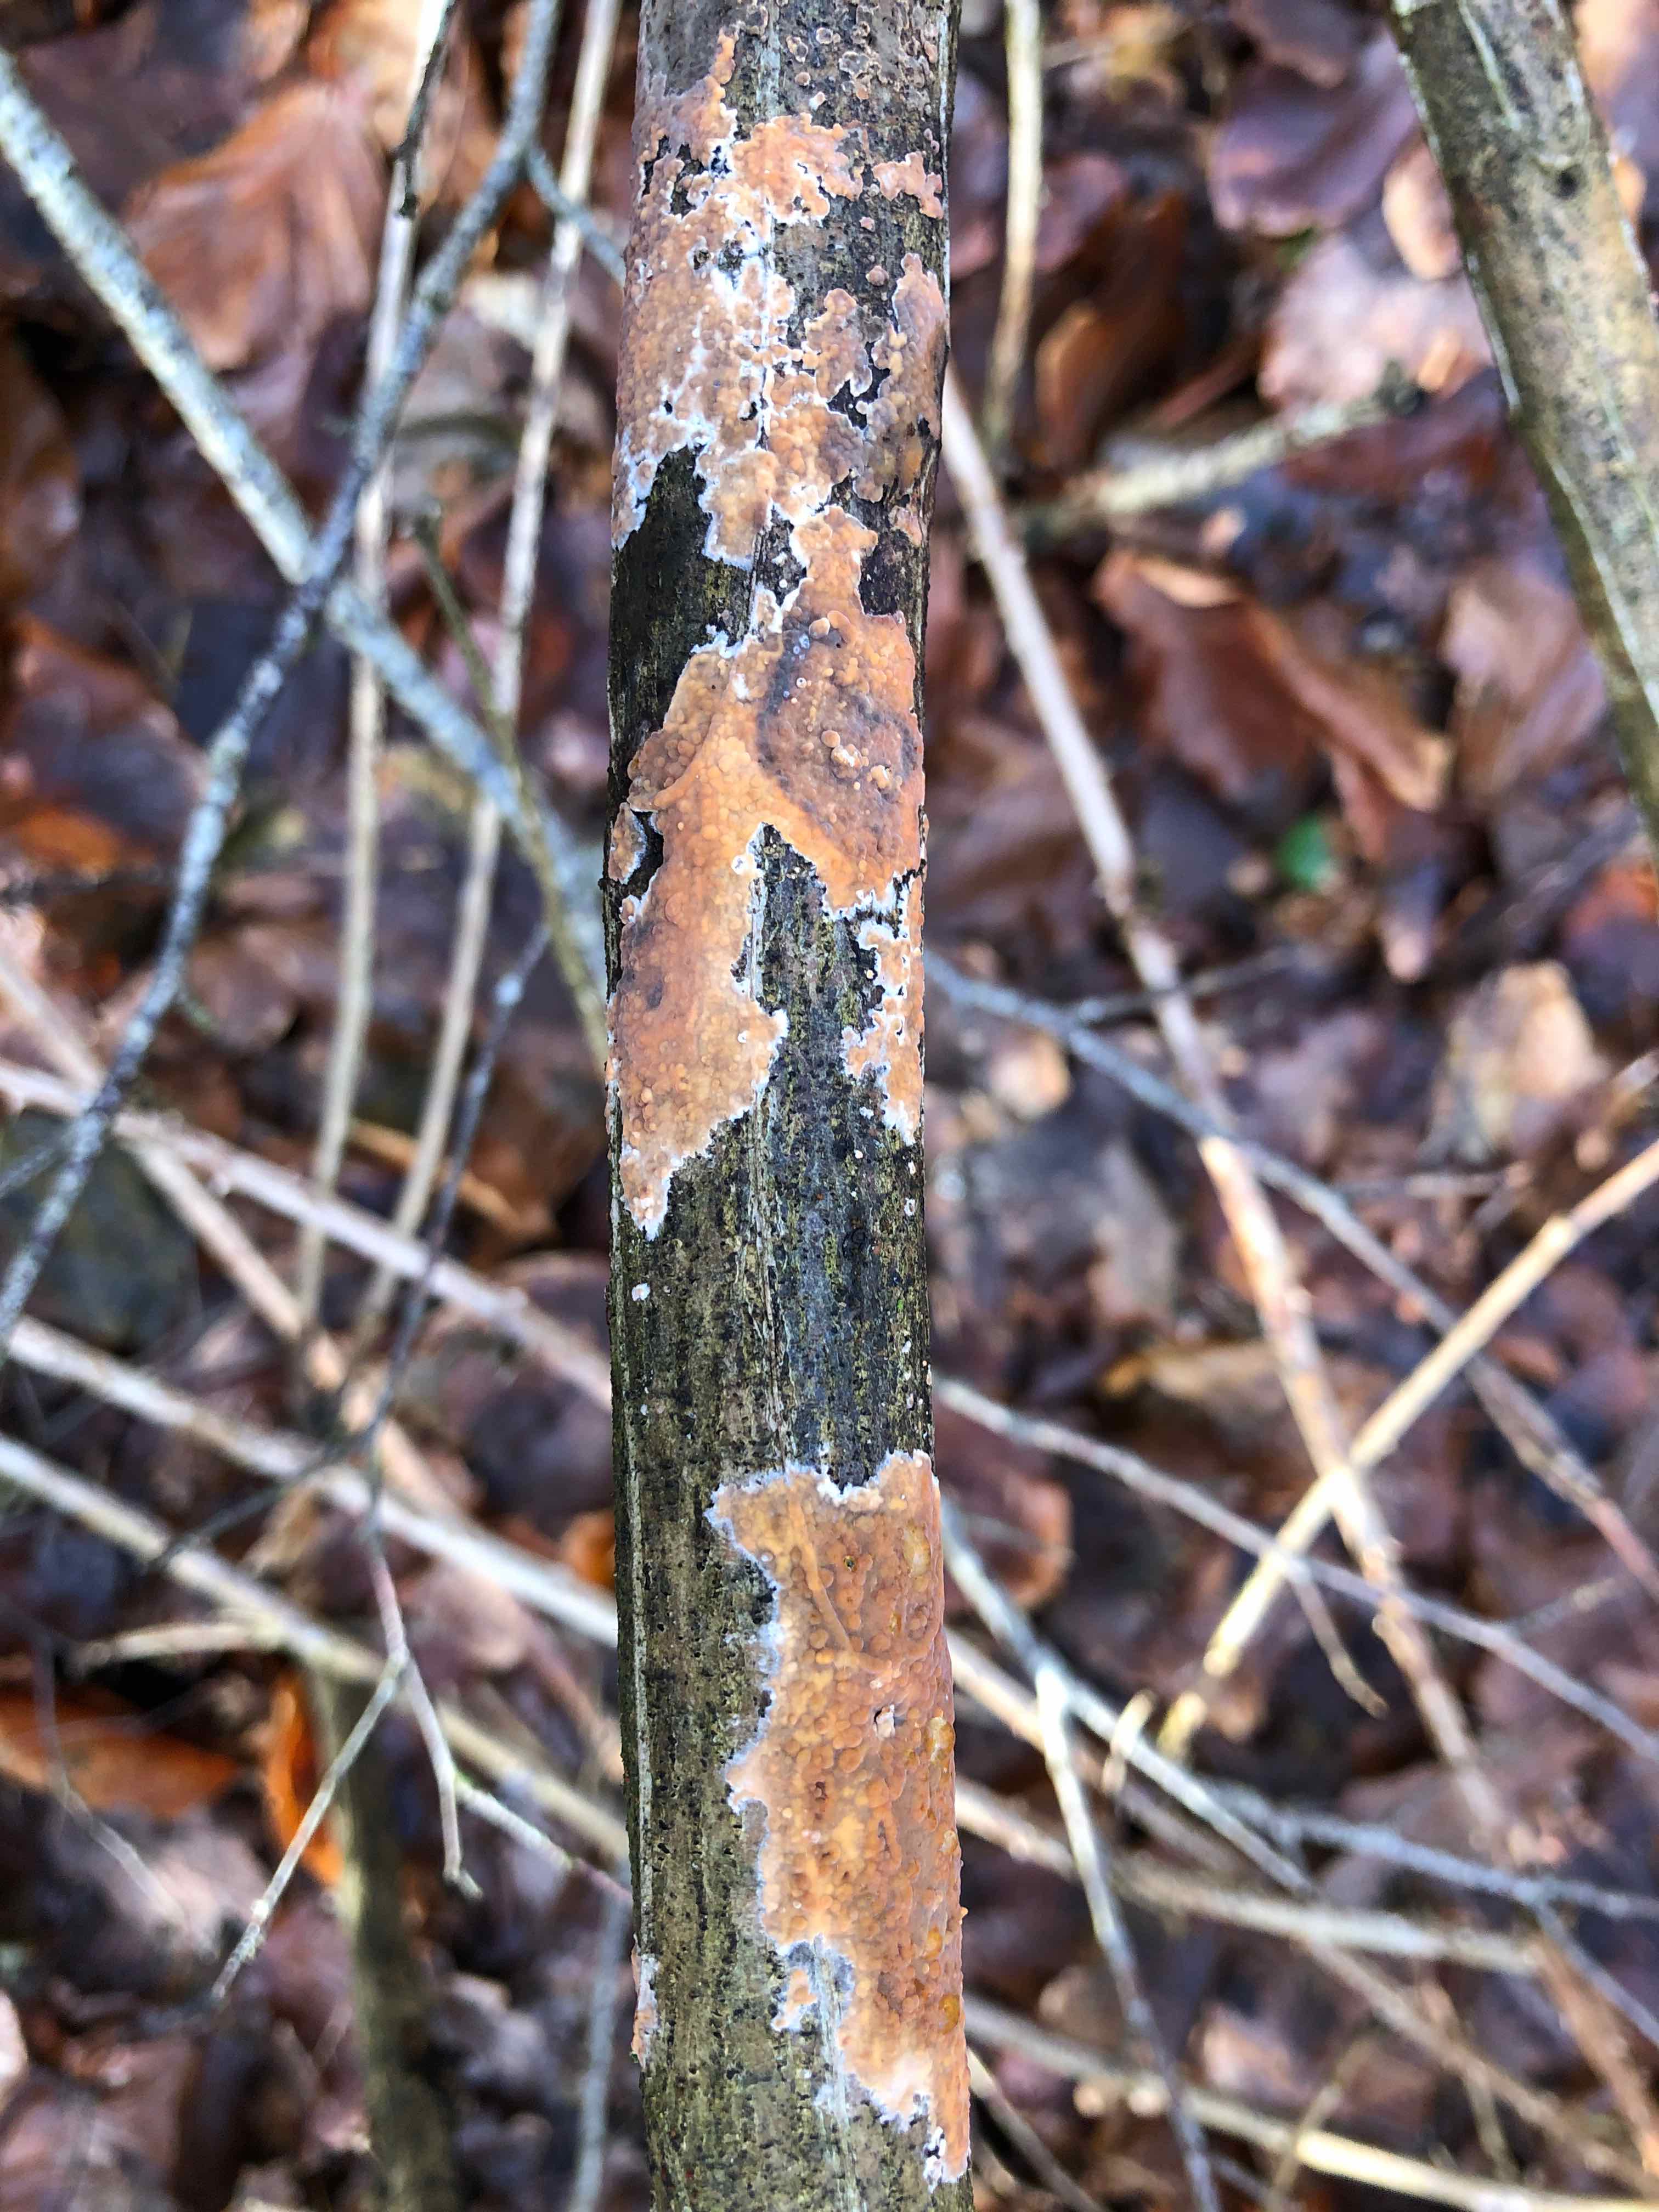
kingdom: Fungi
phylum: Basidiomycota
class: Agaricomycetes
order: Russulales
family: Peniophoraceae
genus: Peniophora
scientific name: Peniophora incarnata
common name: laksefarvet voksskind
